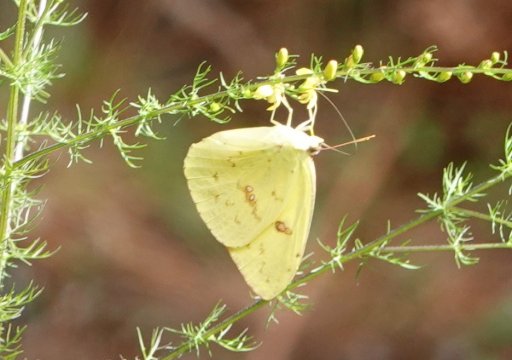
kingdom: Animalia
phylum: Arthropoda
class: Insecta
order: Lepidoptera
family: Pieridae
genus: Phoebis
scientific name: Phoebis sennae
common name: Cloudless Sulphur
